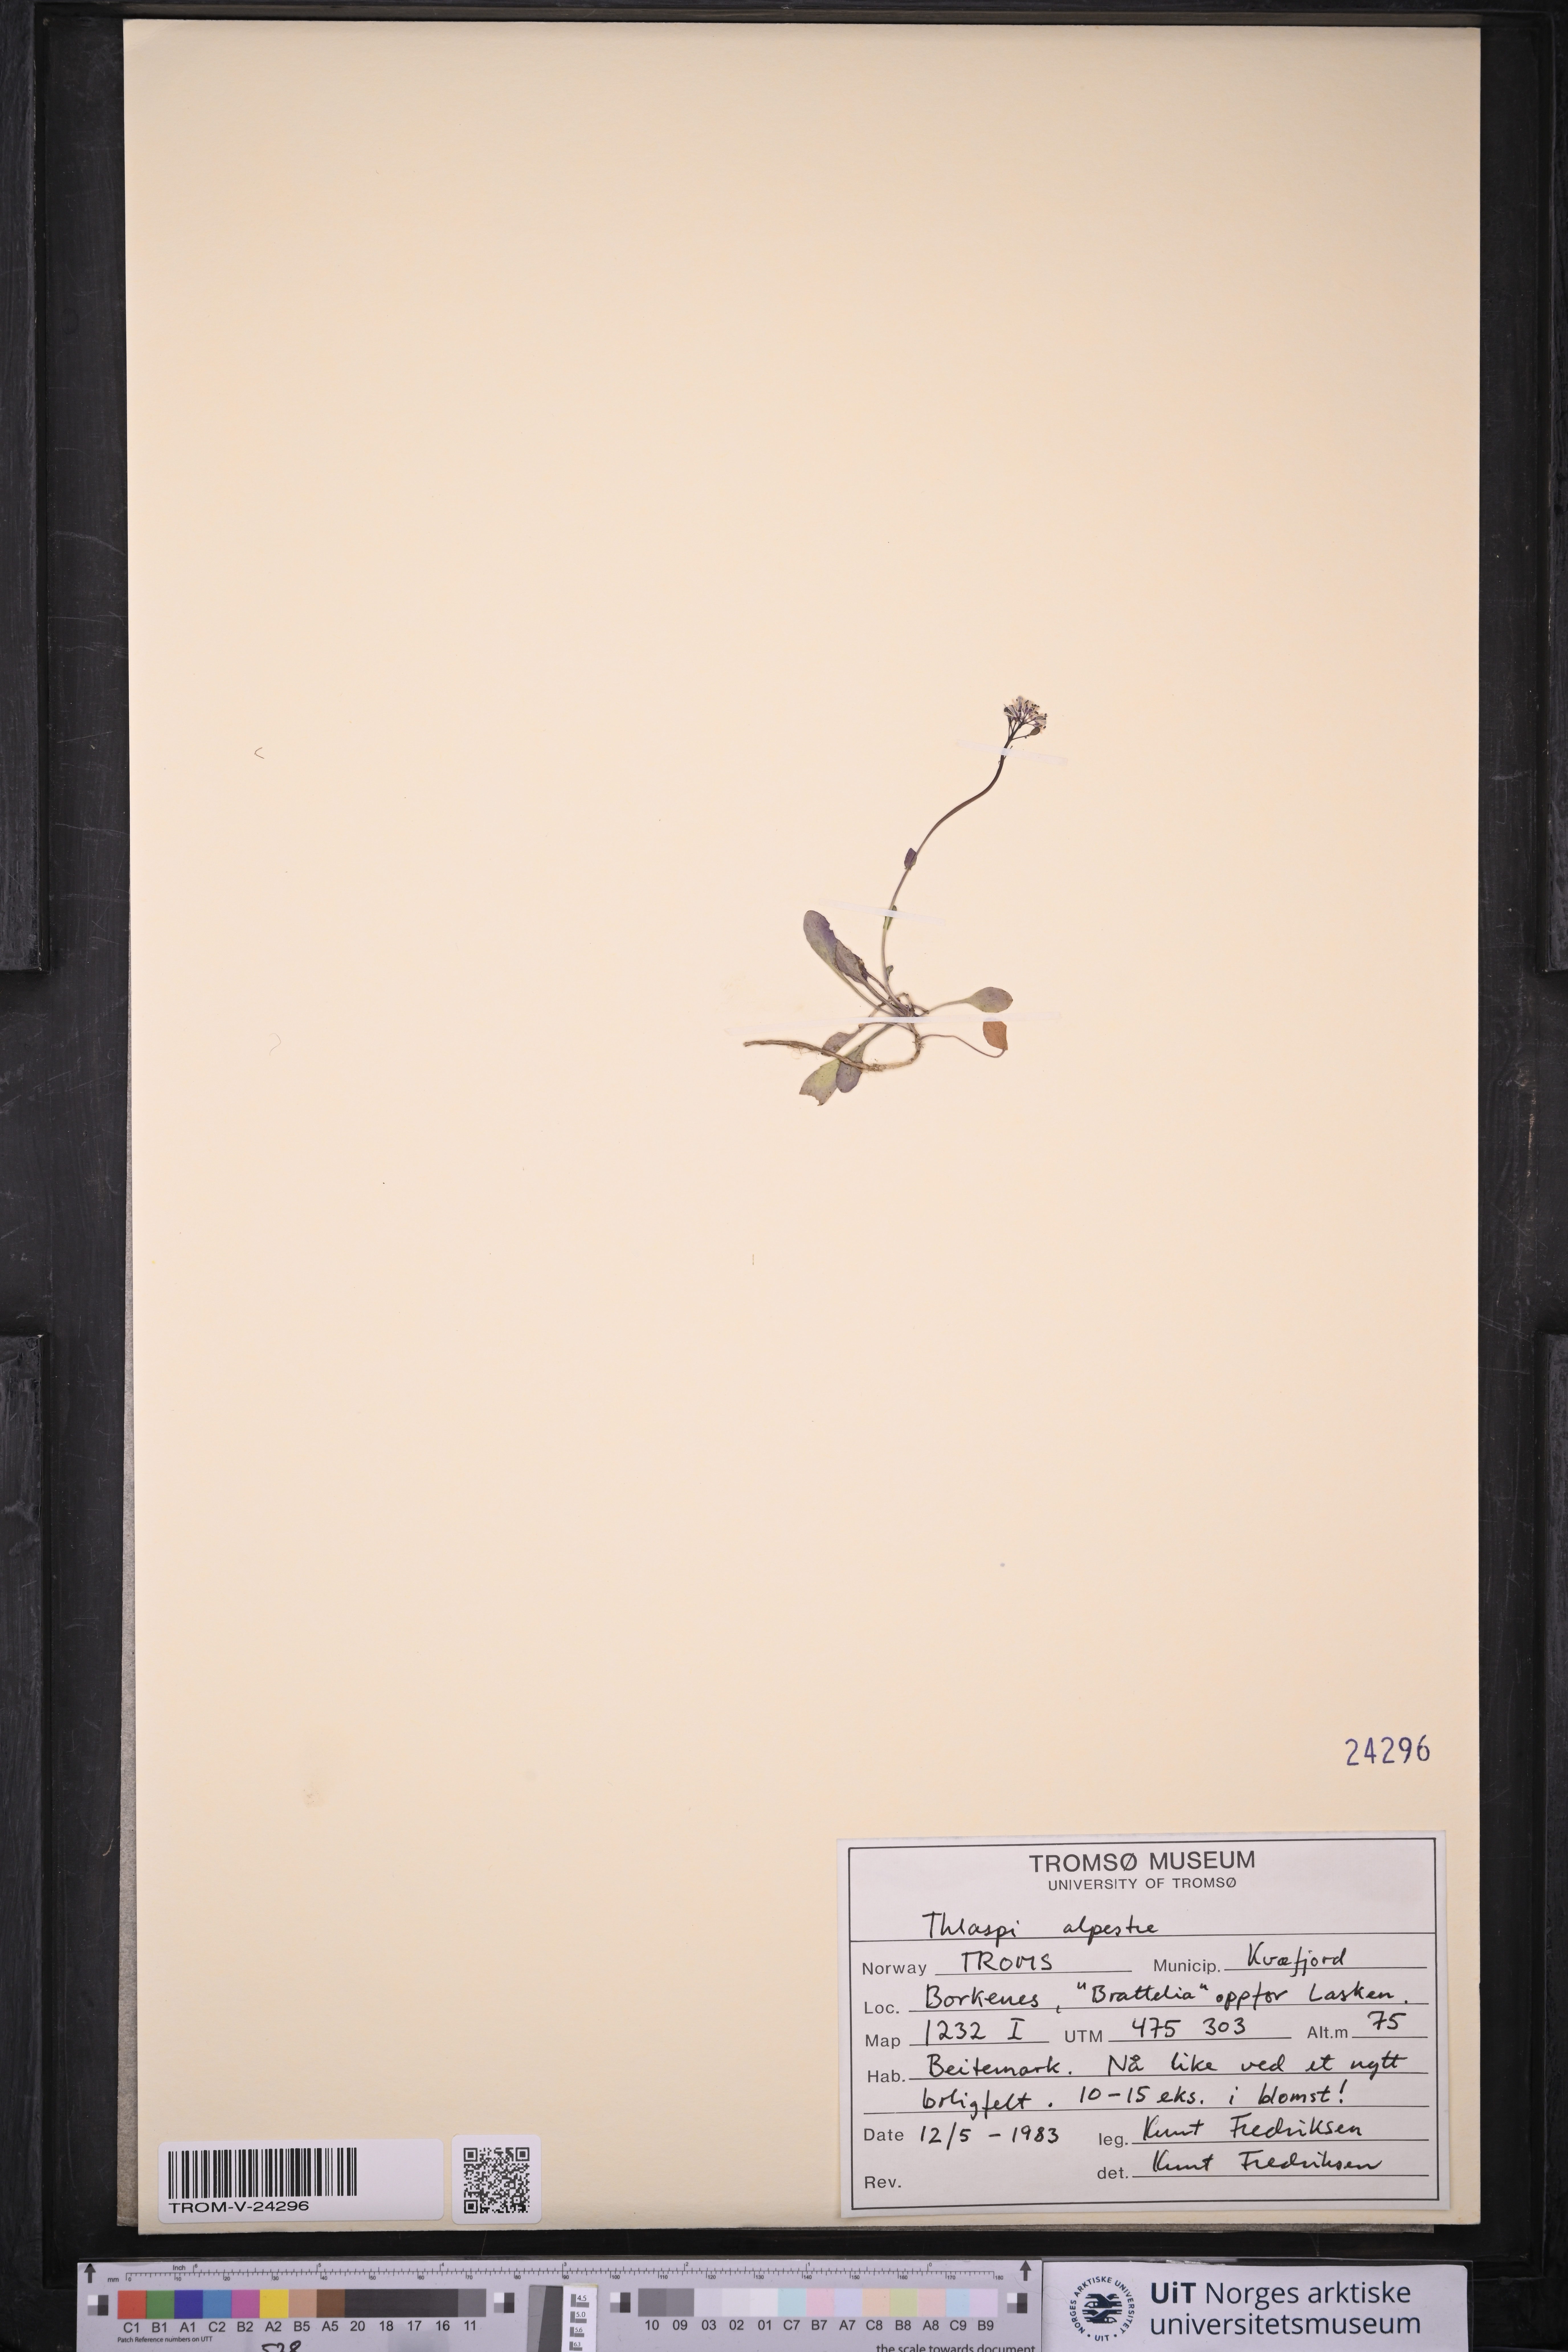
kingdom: Plantae
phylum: Tracheophyta
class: Magnoliopsida
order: Brassicales
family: Brassicaceae
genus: Noccaea
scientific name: Noccaea caerulescens
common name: Alpine pennycress
